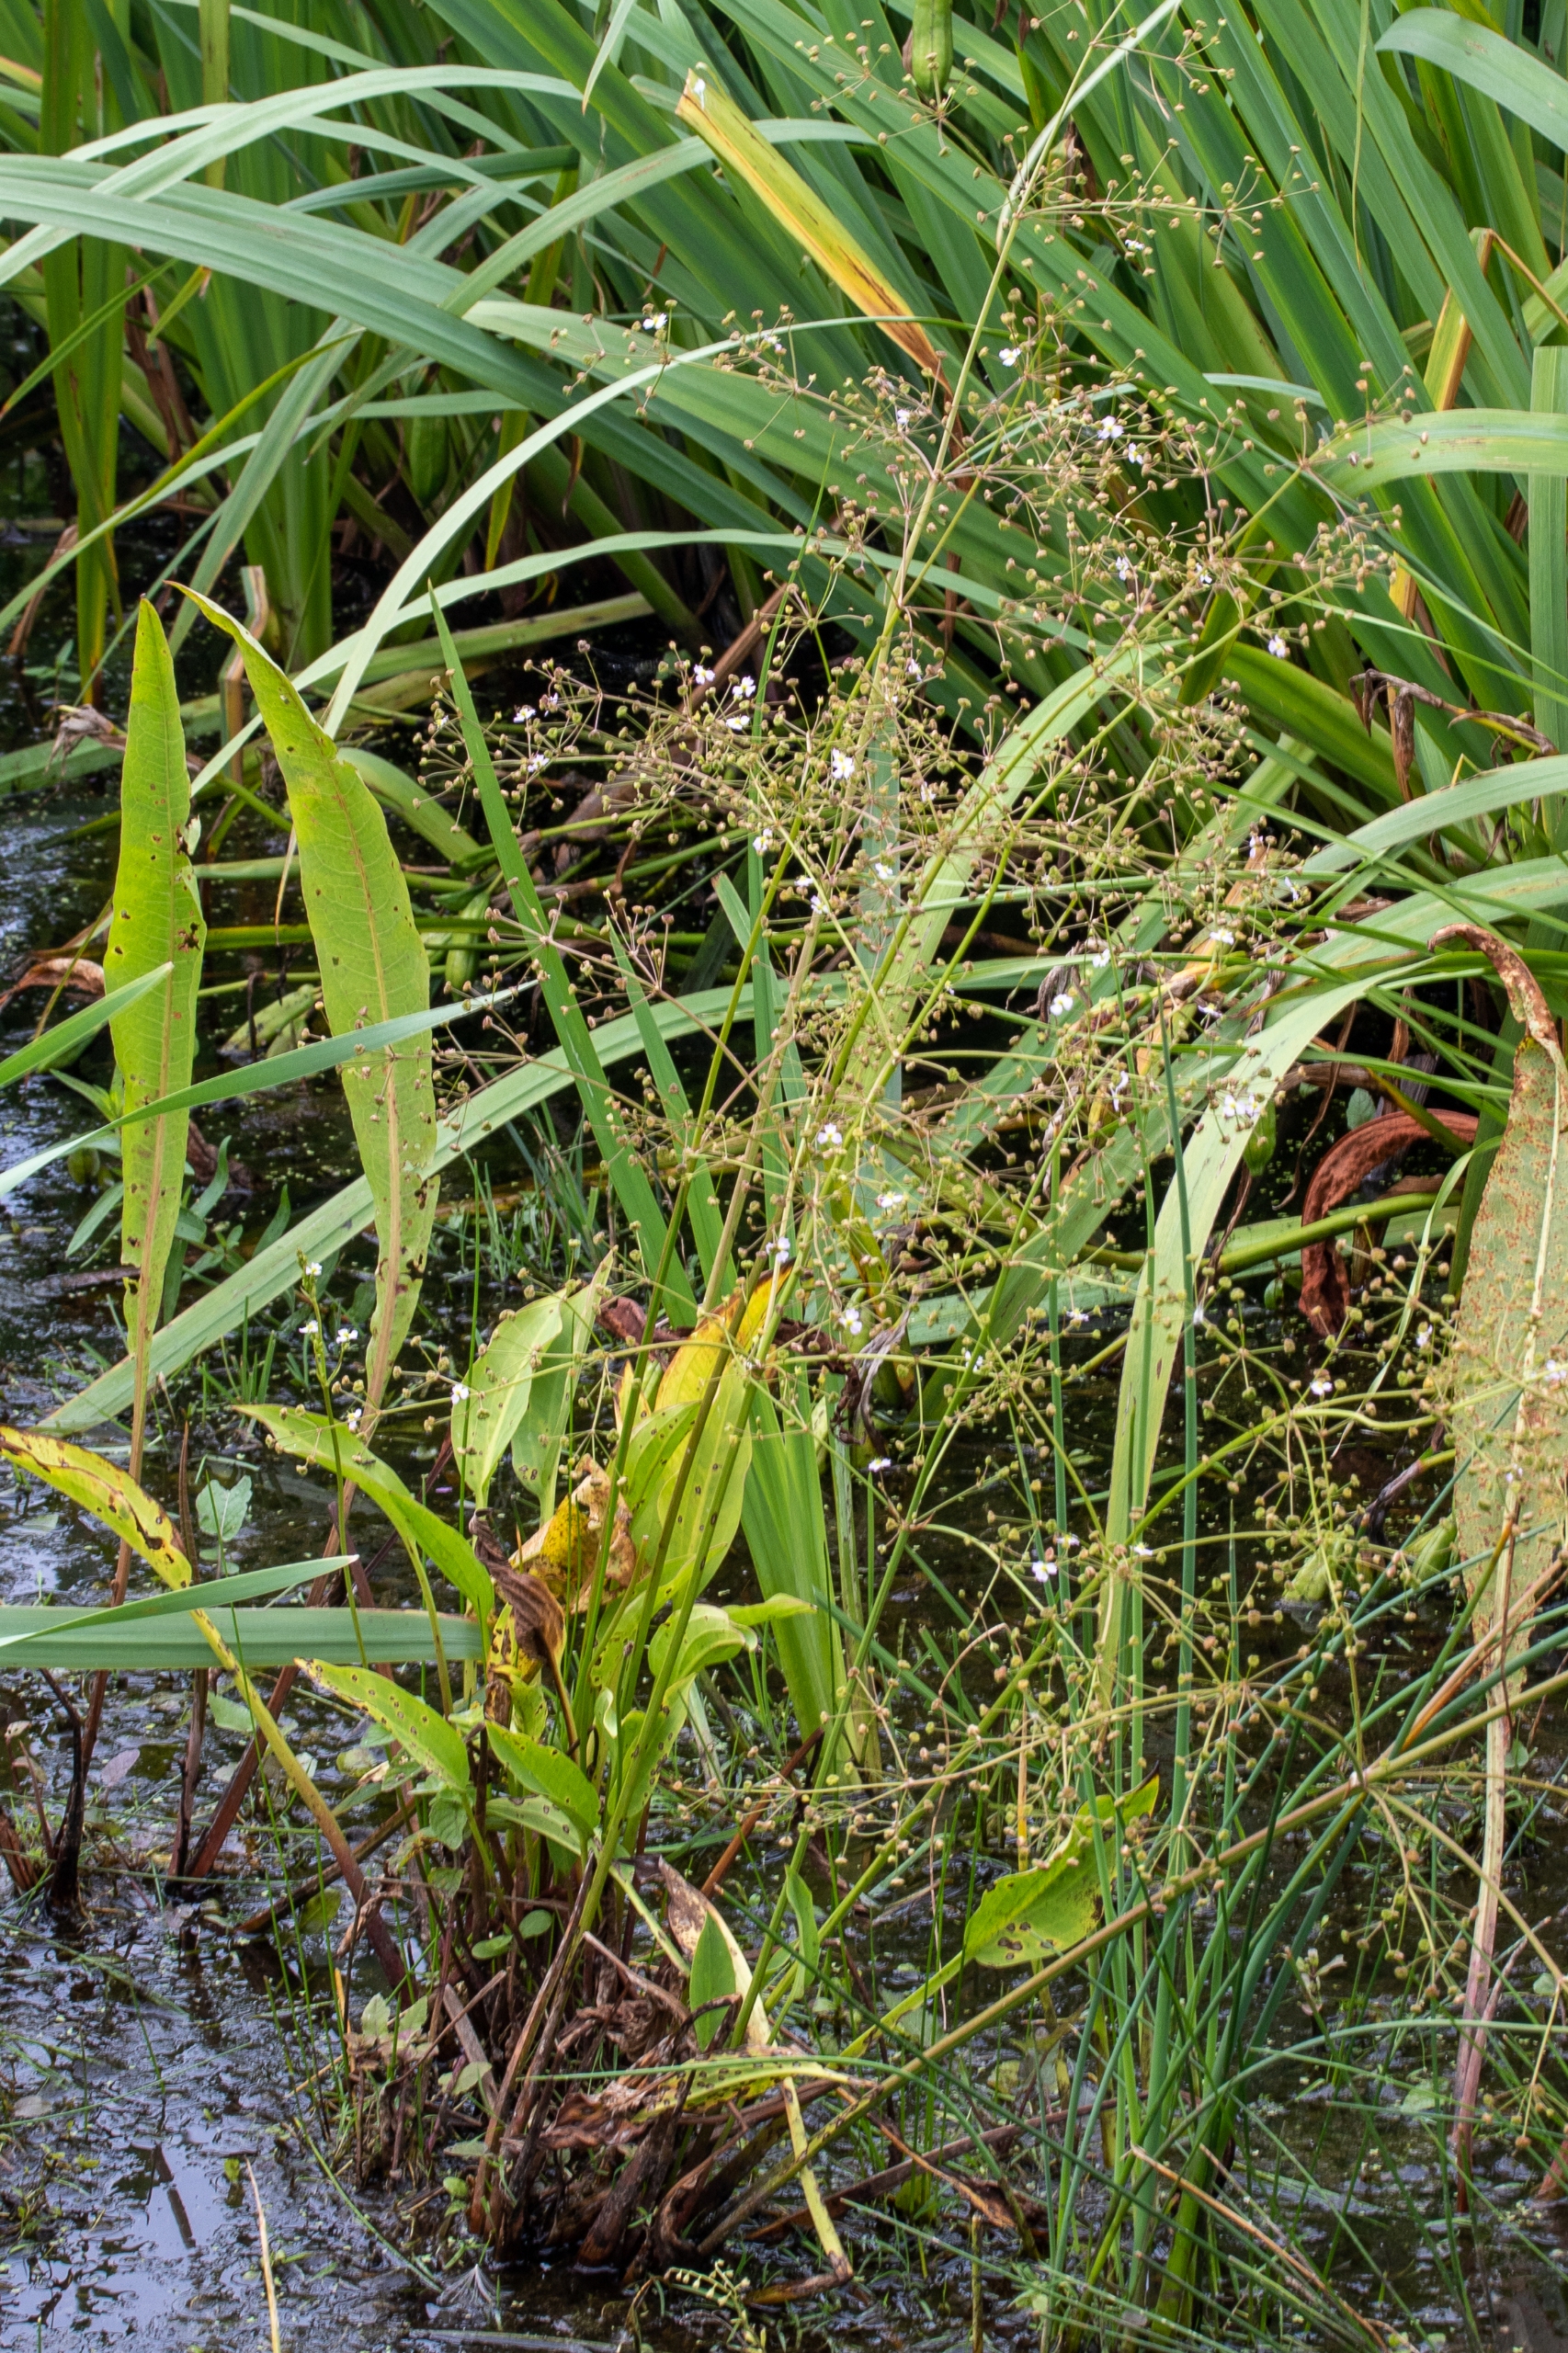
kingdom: Plantae
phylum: Tracheophyta
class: Liliopsida
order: Alismatales
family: Alismataceae
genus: Alisma
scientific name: Alisma plantago-aquatica
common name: Vejbred-skeblad
